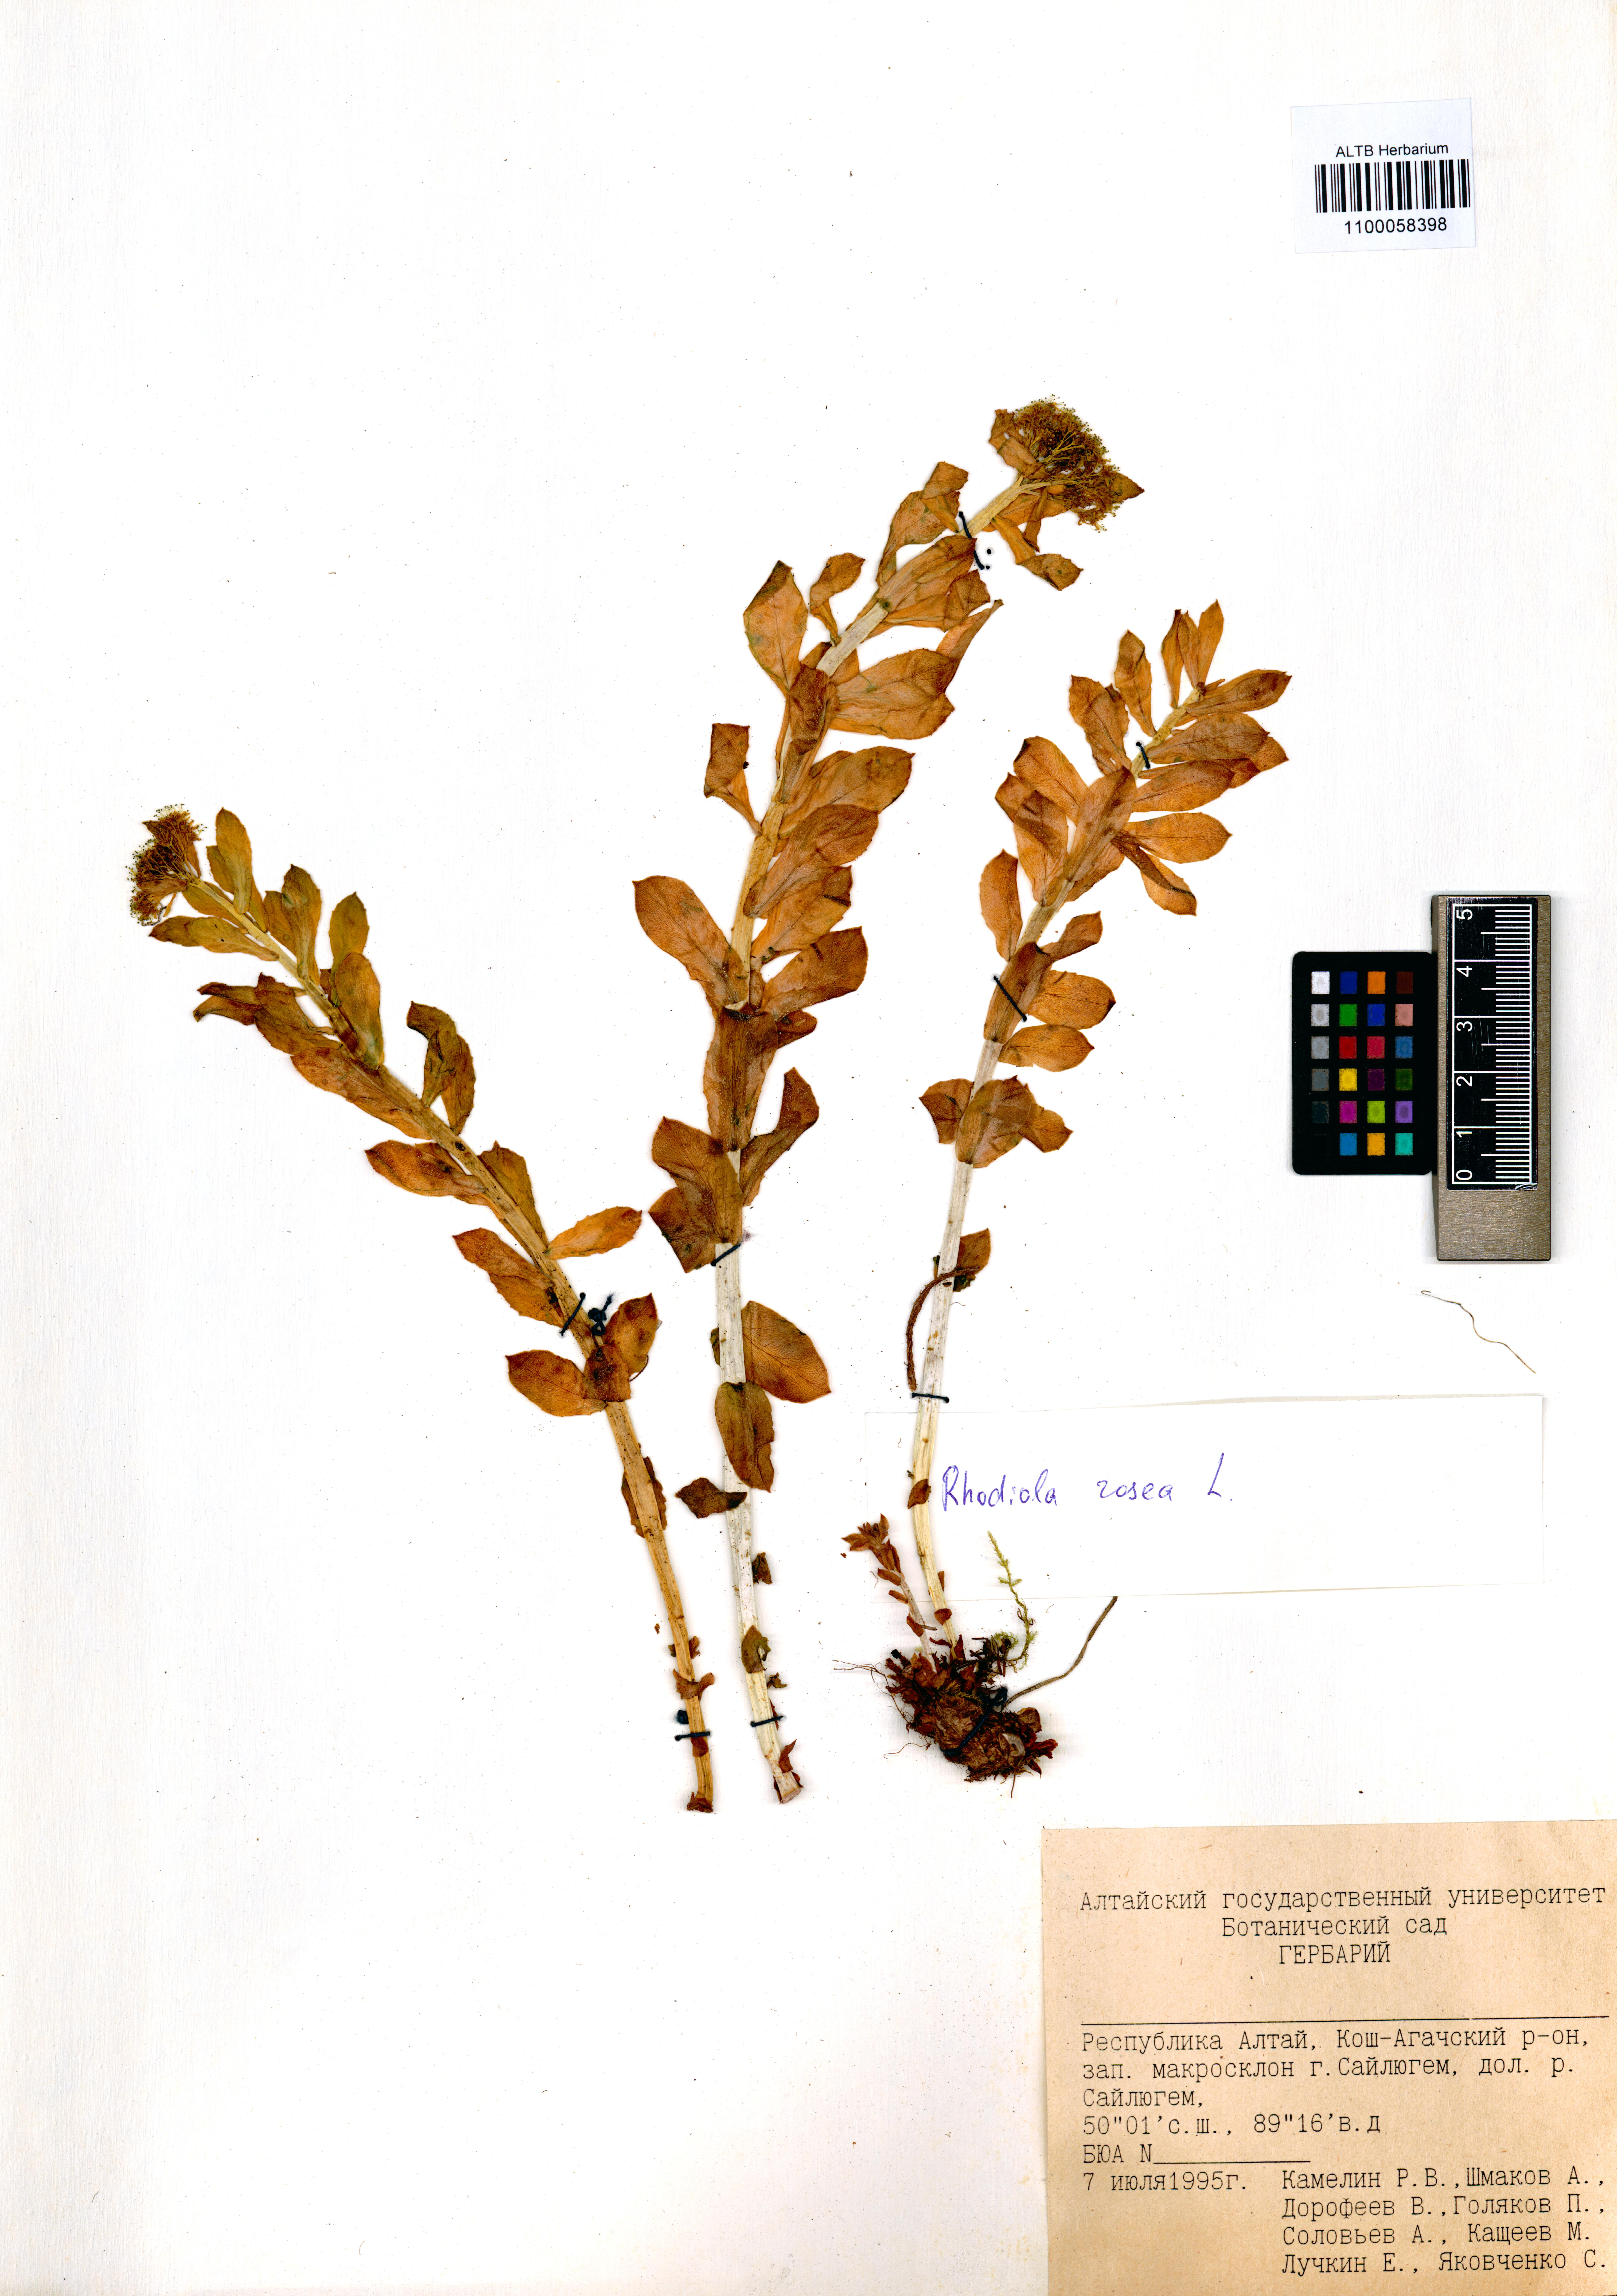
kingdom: Plantae
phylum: Tracheophyta
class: Magnoliopsida
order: Saxifragales
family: Crassulaceae
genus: Rhodiola
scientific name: Rhodiola rosea
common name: Roseroot
